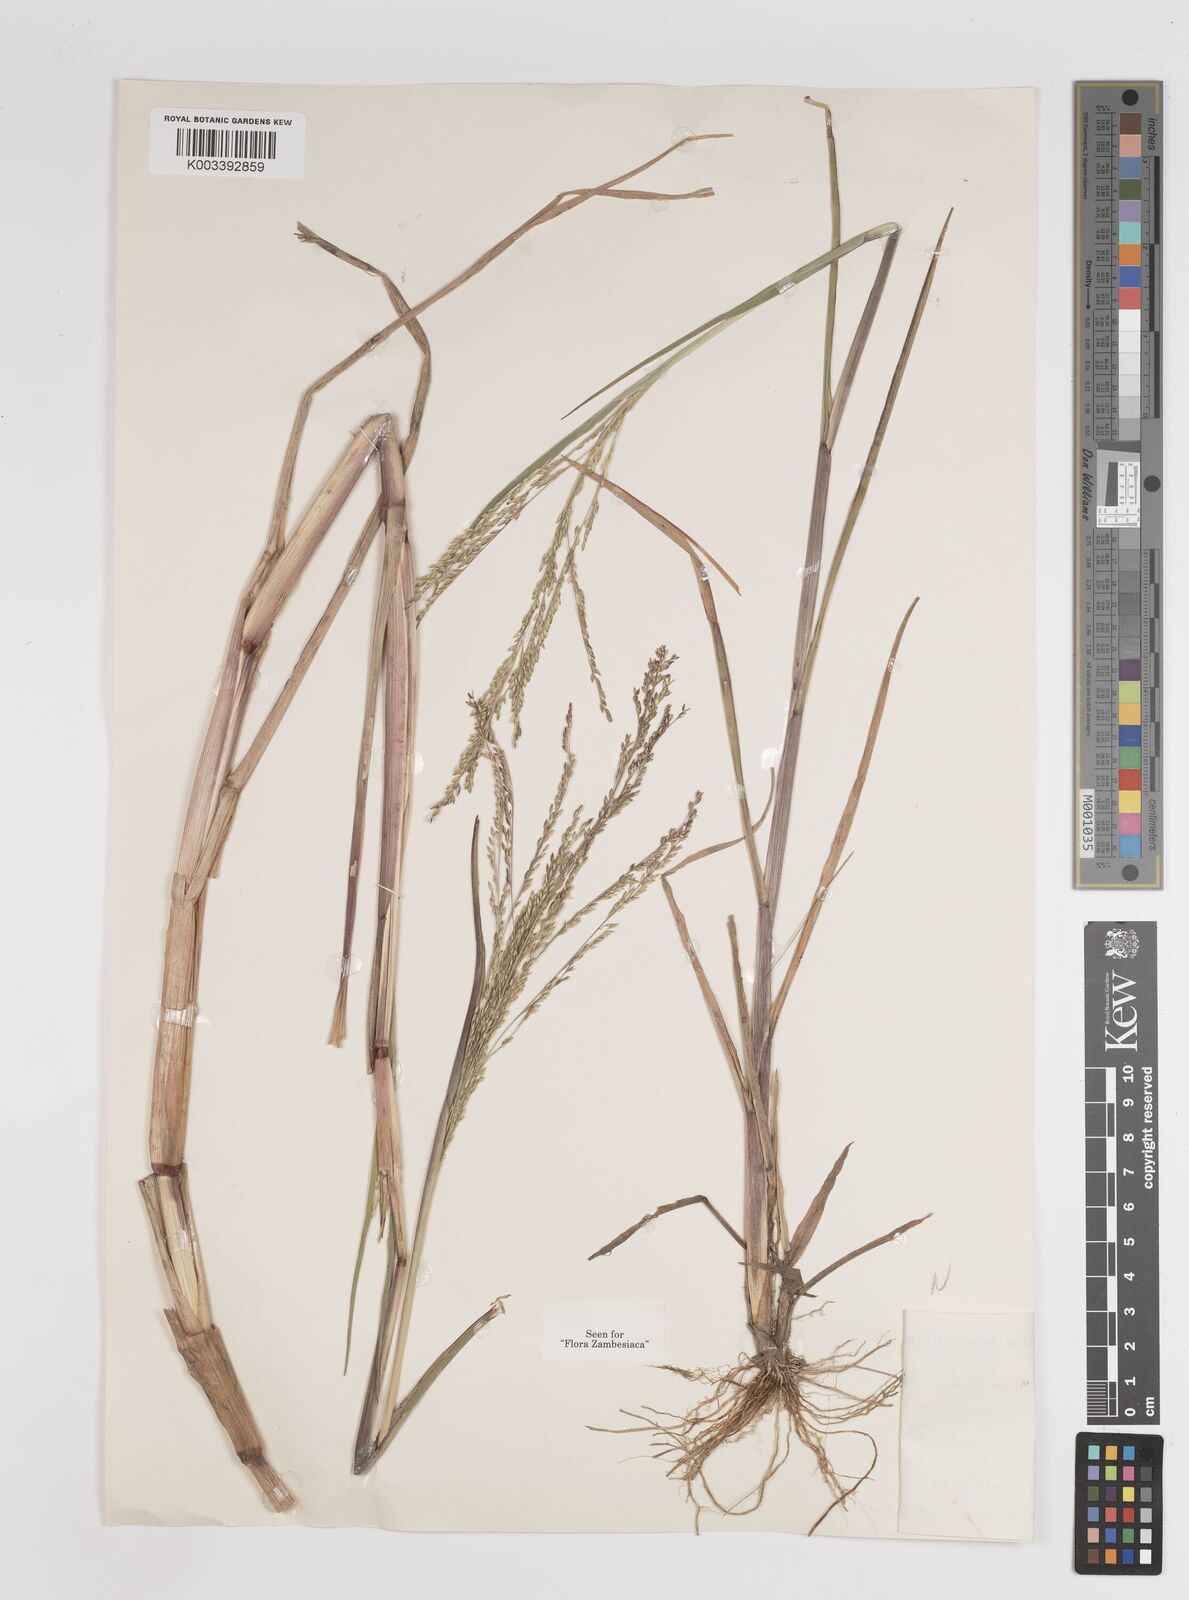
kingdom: Plantae
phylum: Tracheophyta
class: Liliopsida
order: Poales
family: Poaceae
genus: Panicum
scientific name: Panicum subalbidum
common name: Elbow buffalo grass
